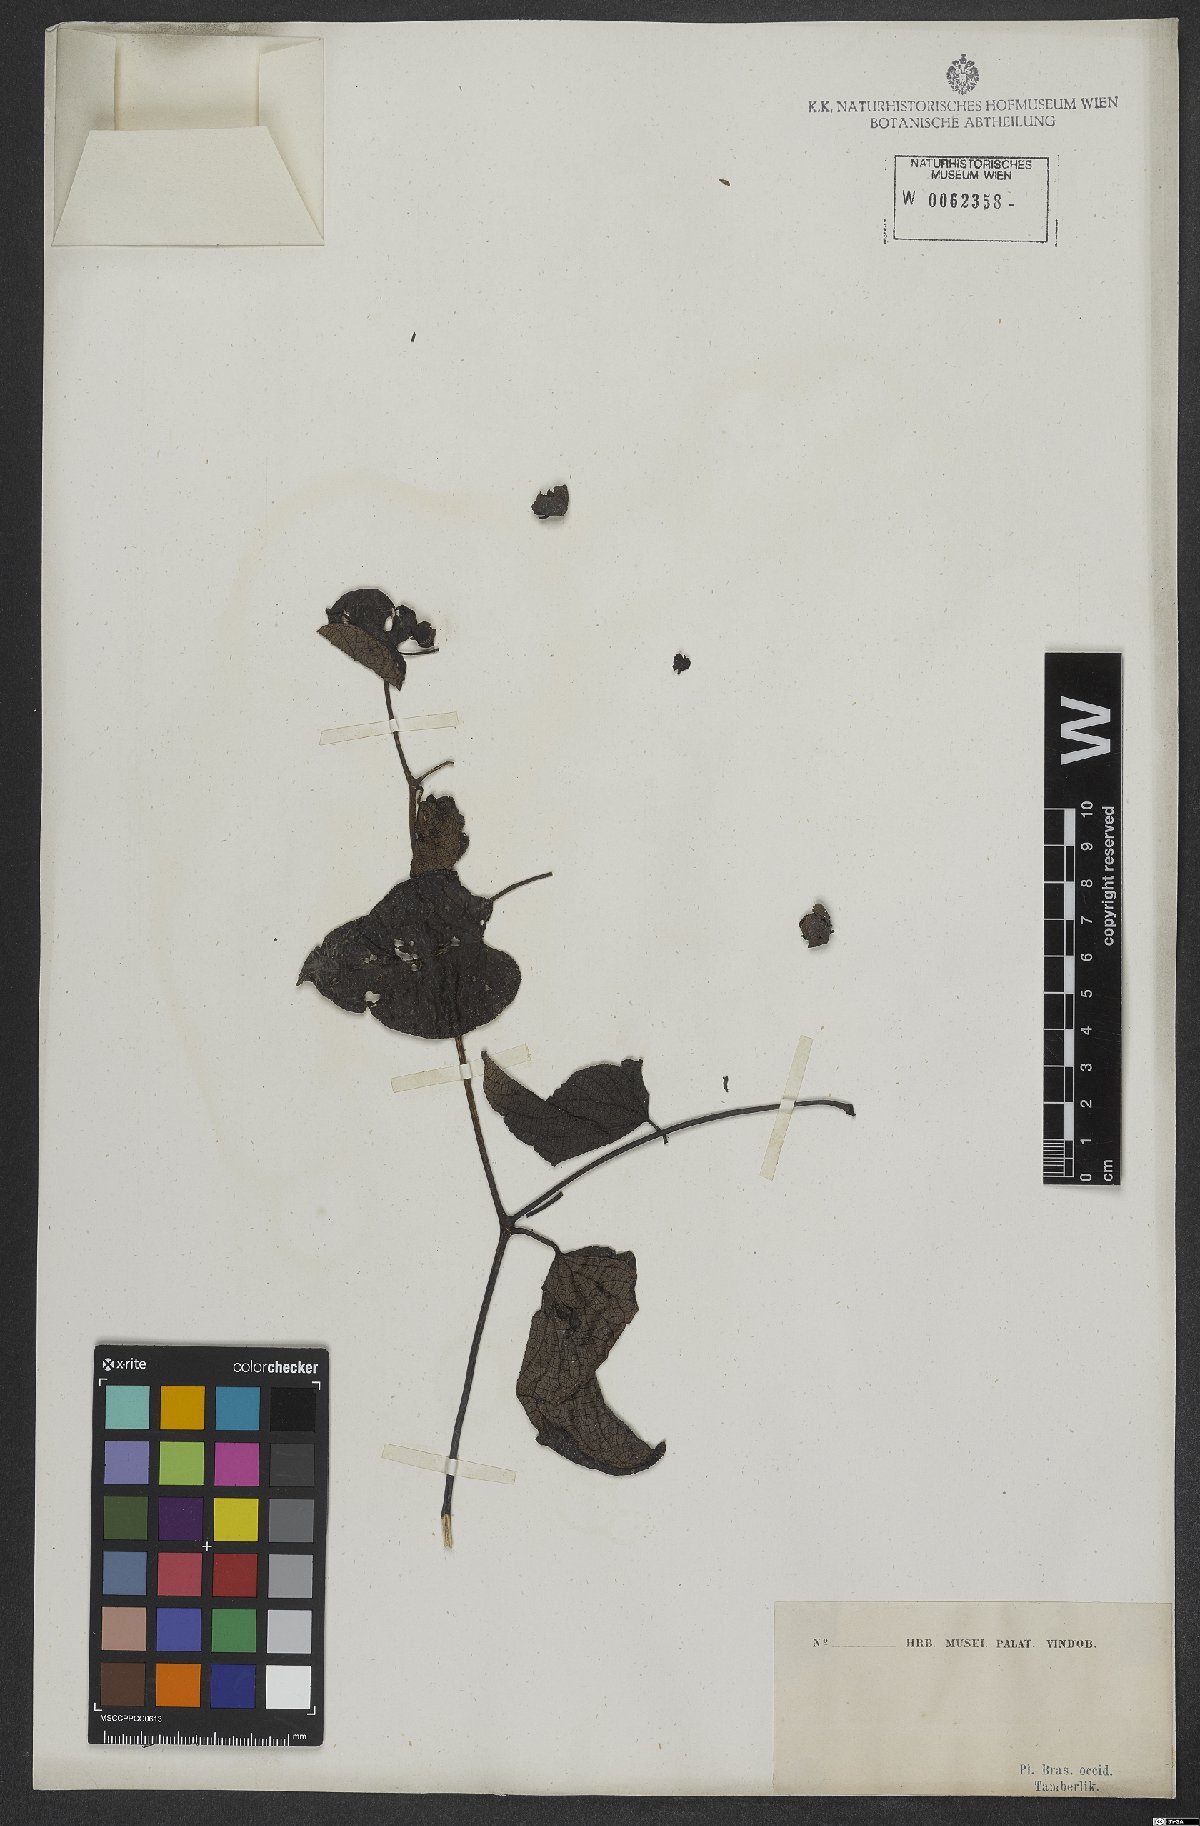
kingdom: Plantae
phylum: Tracheophyta
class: Magnoliopsida
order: Solanales
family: Convolvulaceae
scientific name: Convolvulaceae
